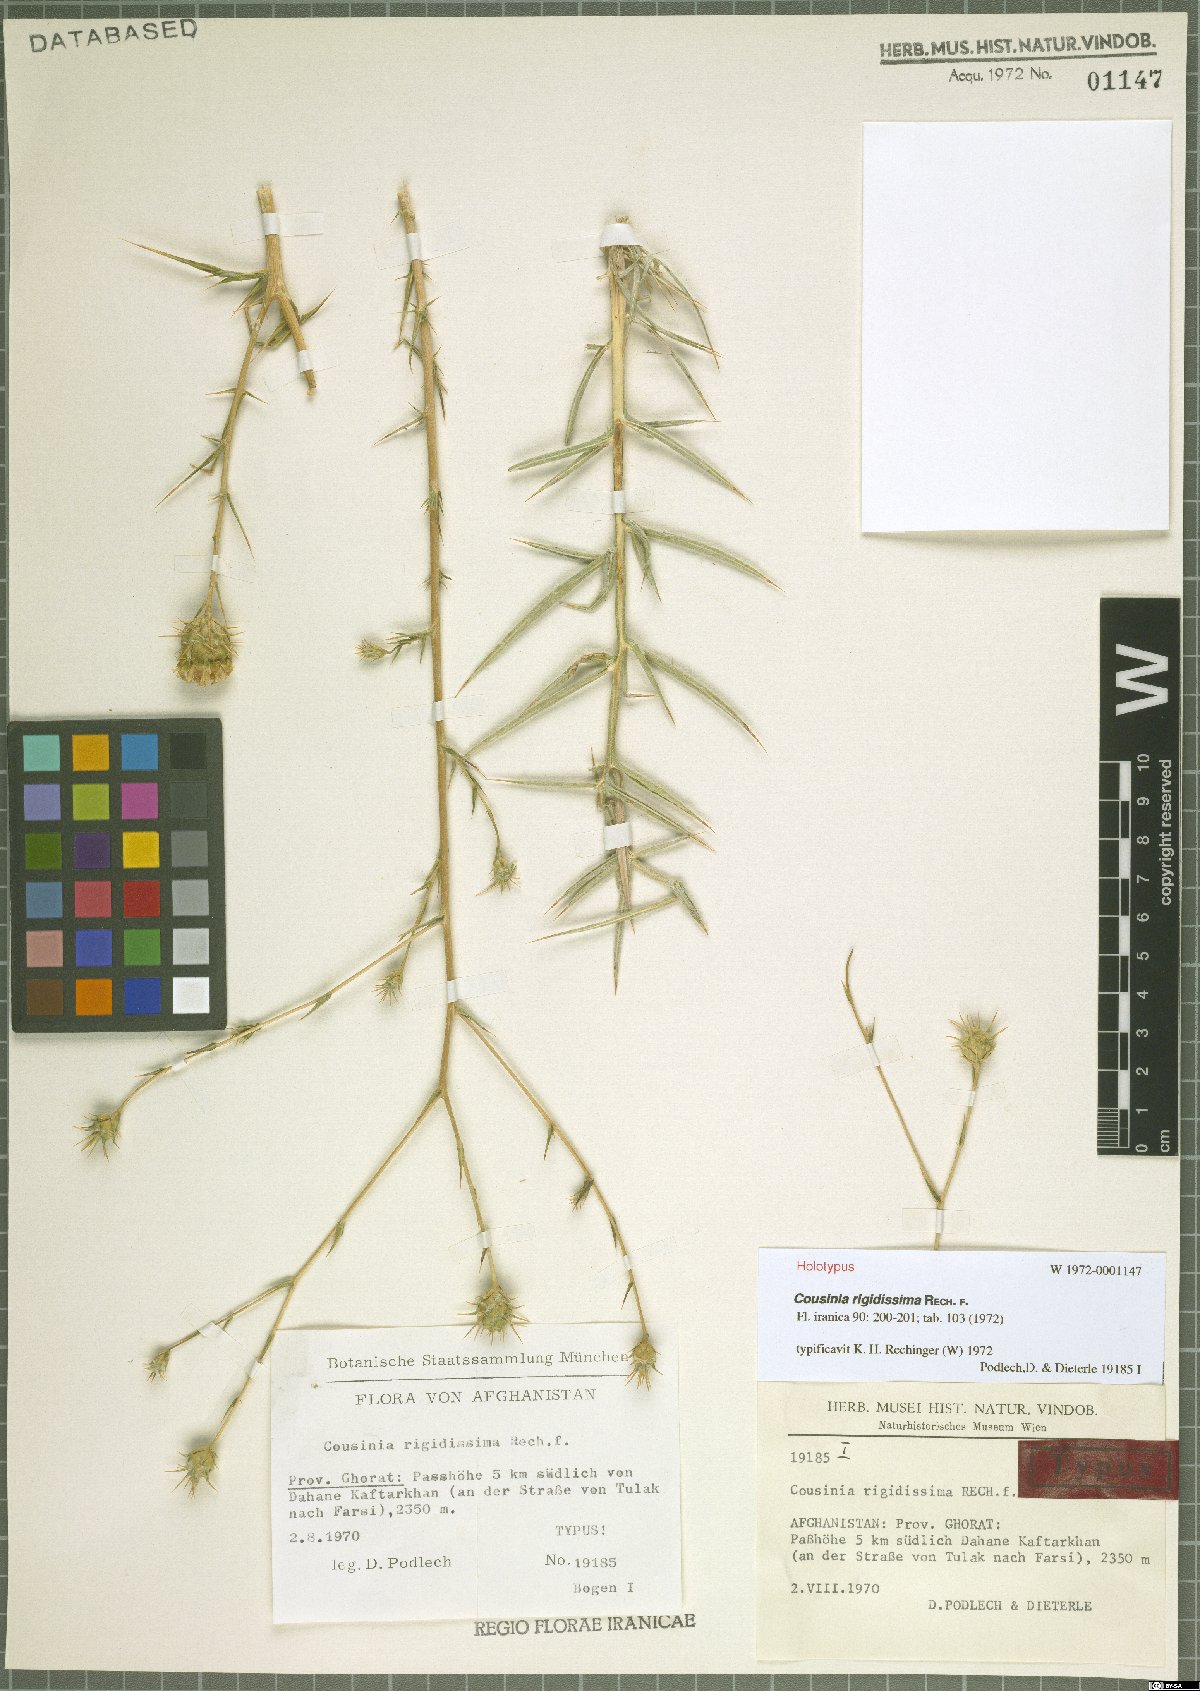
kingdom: Plantae
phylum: Tracheophyta
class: Magnoliopsida
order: Asterales
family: Asteraceae
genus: Cousinia
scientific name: Cousinia rigidissima
